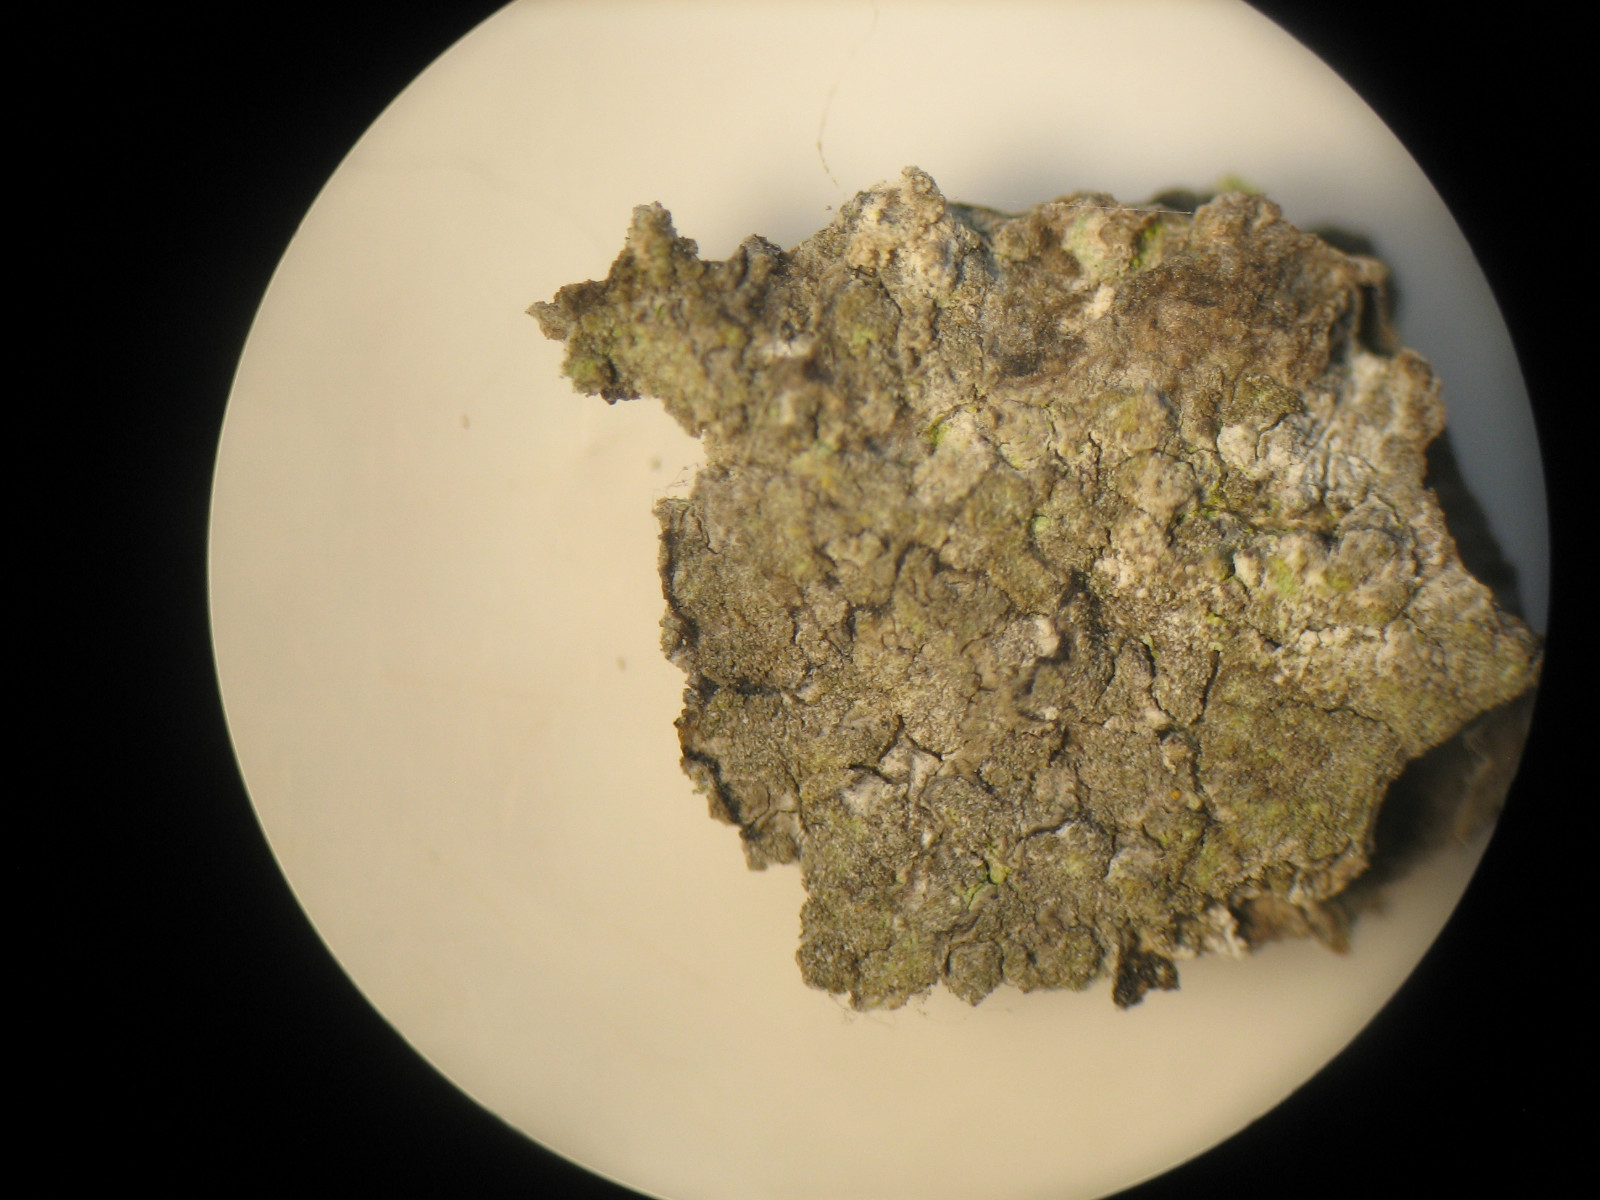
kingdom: Fungi
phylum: Ascomycota
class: Arthoniomycetes
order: Arthoniales
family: Roccellaceae
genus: Dendrographa
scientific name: Dendrographa decolorans
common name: forskelligfarvet skurvelav
